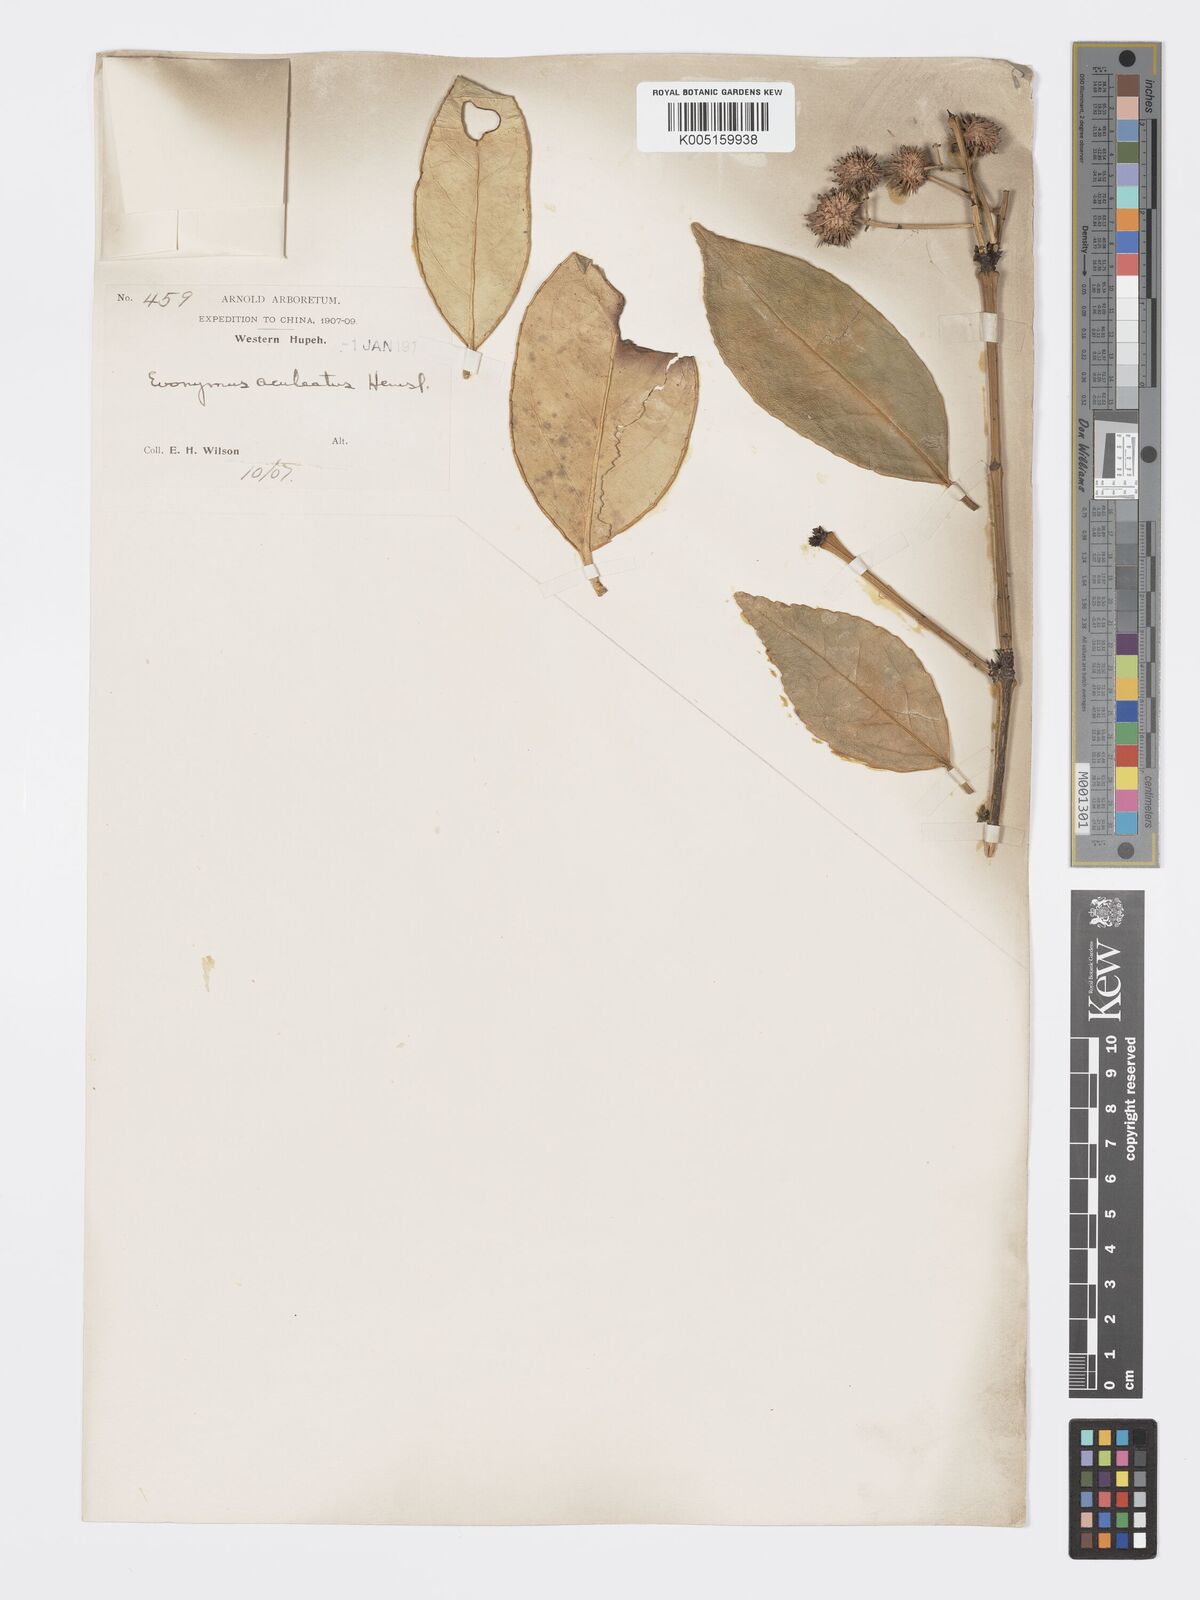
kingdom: Plantae
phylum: Tracheophyta
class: Magnoliopsida
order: Celastrales
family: Celastraceae
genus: Euonymus
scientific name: Euonymus aculeatus
